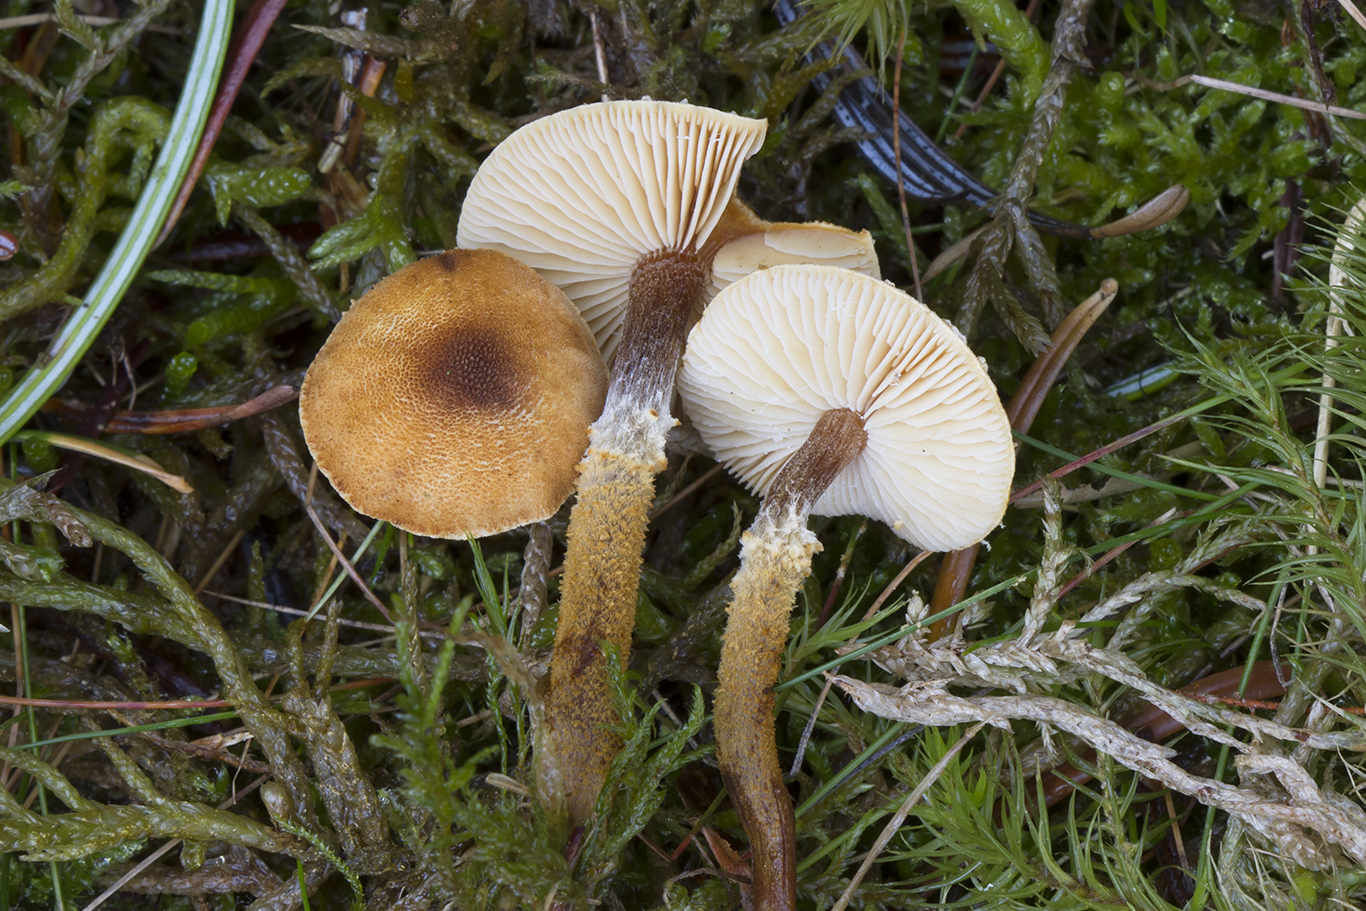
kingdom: Fungi
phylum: Basidiomycota
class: Agaricomycetes
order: Agaricales
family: Tricholomataceae
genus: Cystoderma
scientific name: Cystoderma jasonis
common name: gulkødet grynhat
